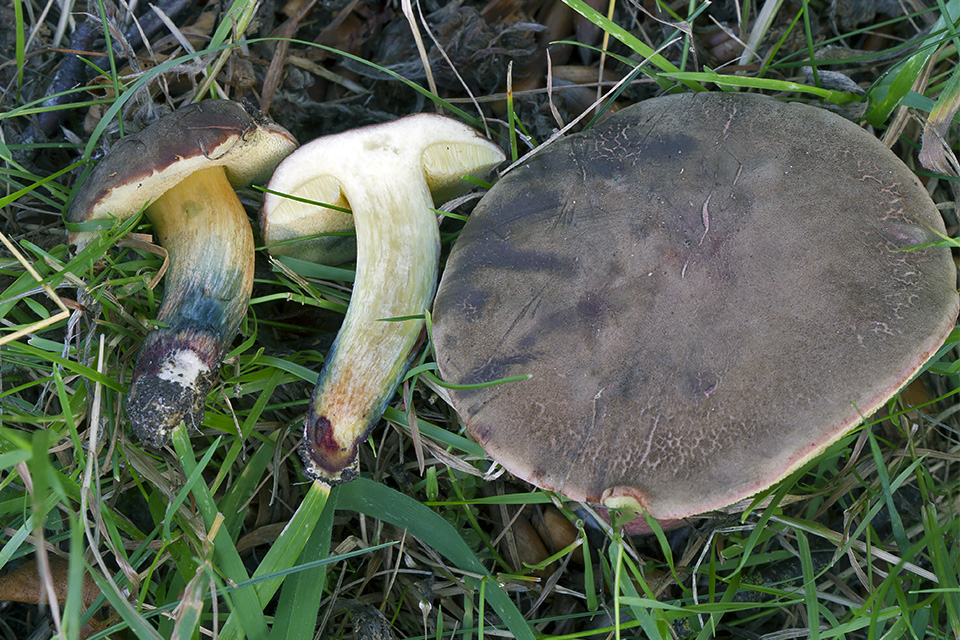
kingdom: Fungi
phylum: Basidiomycota
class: Agaricomycetes
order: Boletales
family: Boletaceae
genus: Xerocomellus
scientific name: Xerocomellus cisalpinus
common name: finsprukken rørhat
